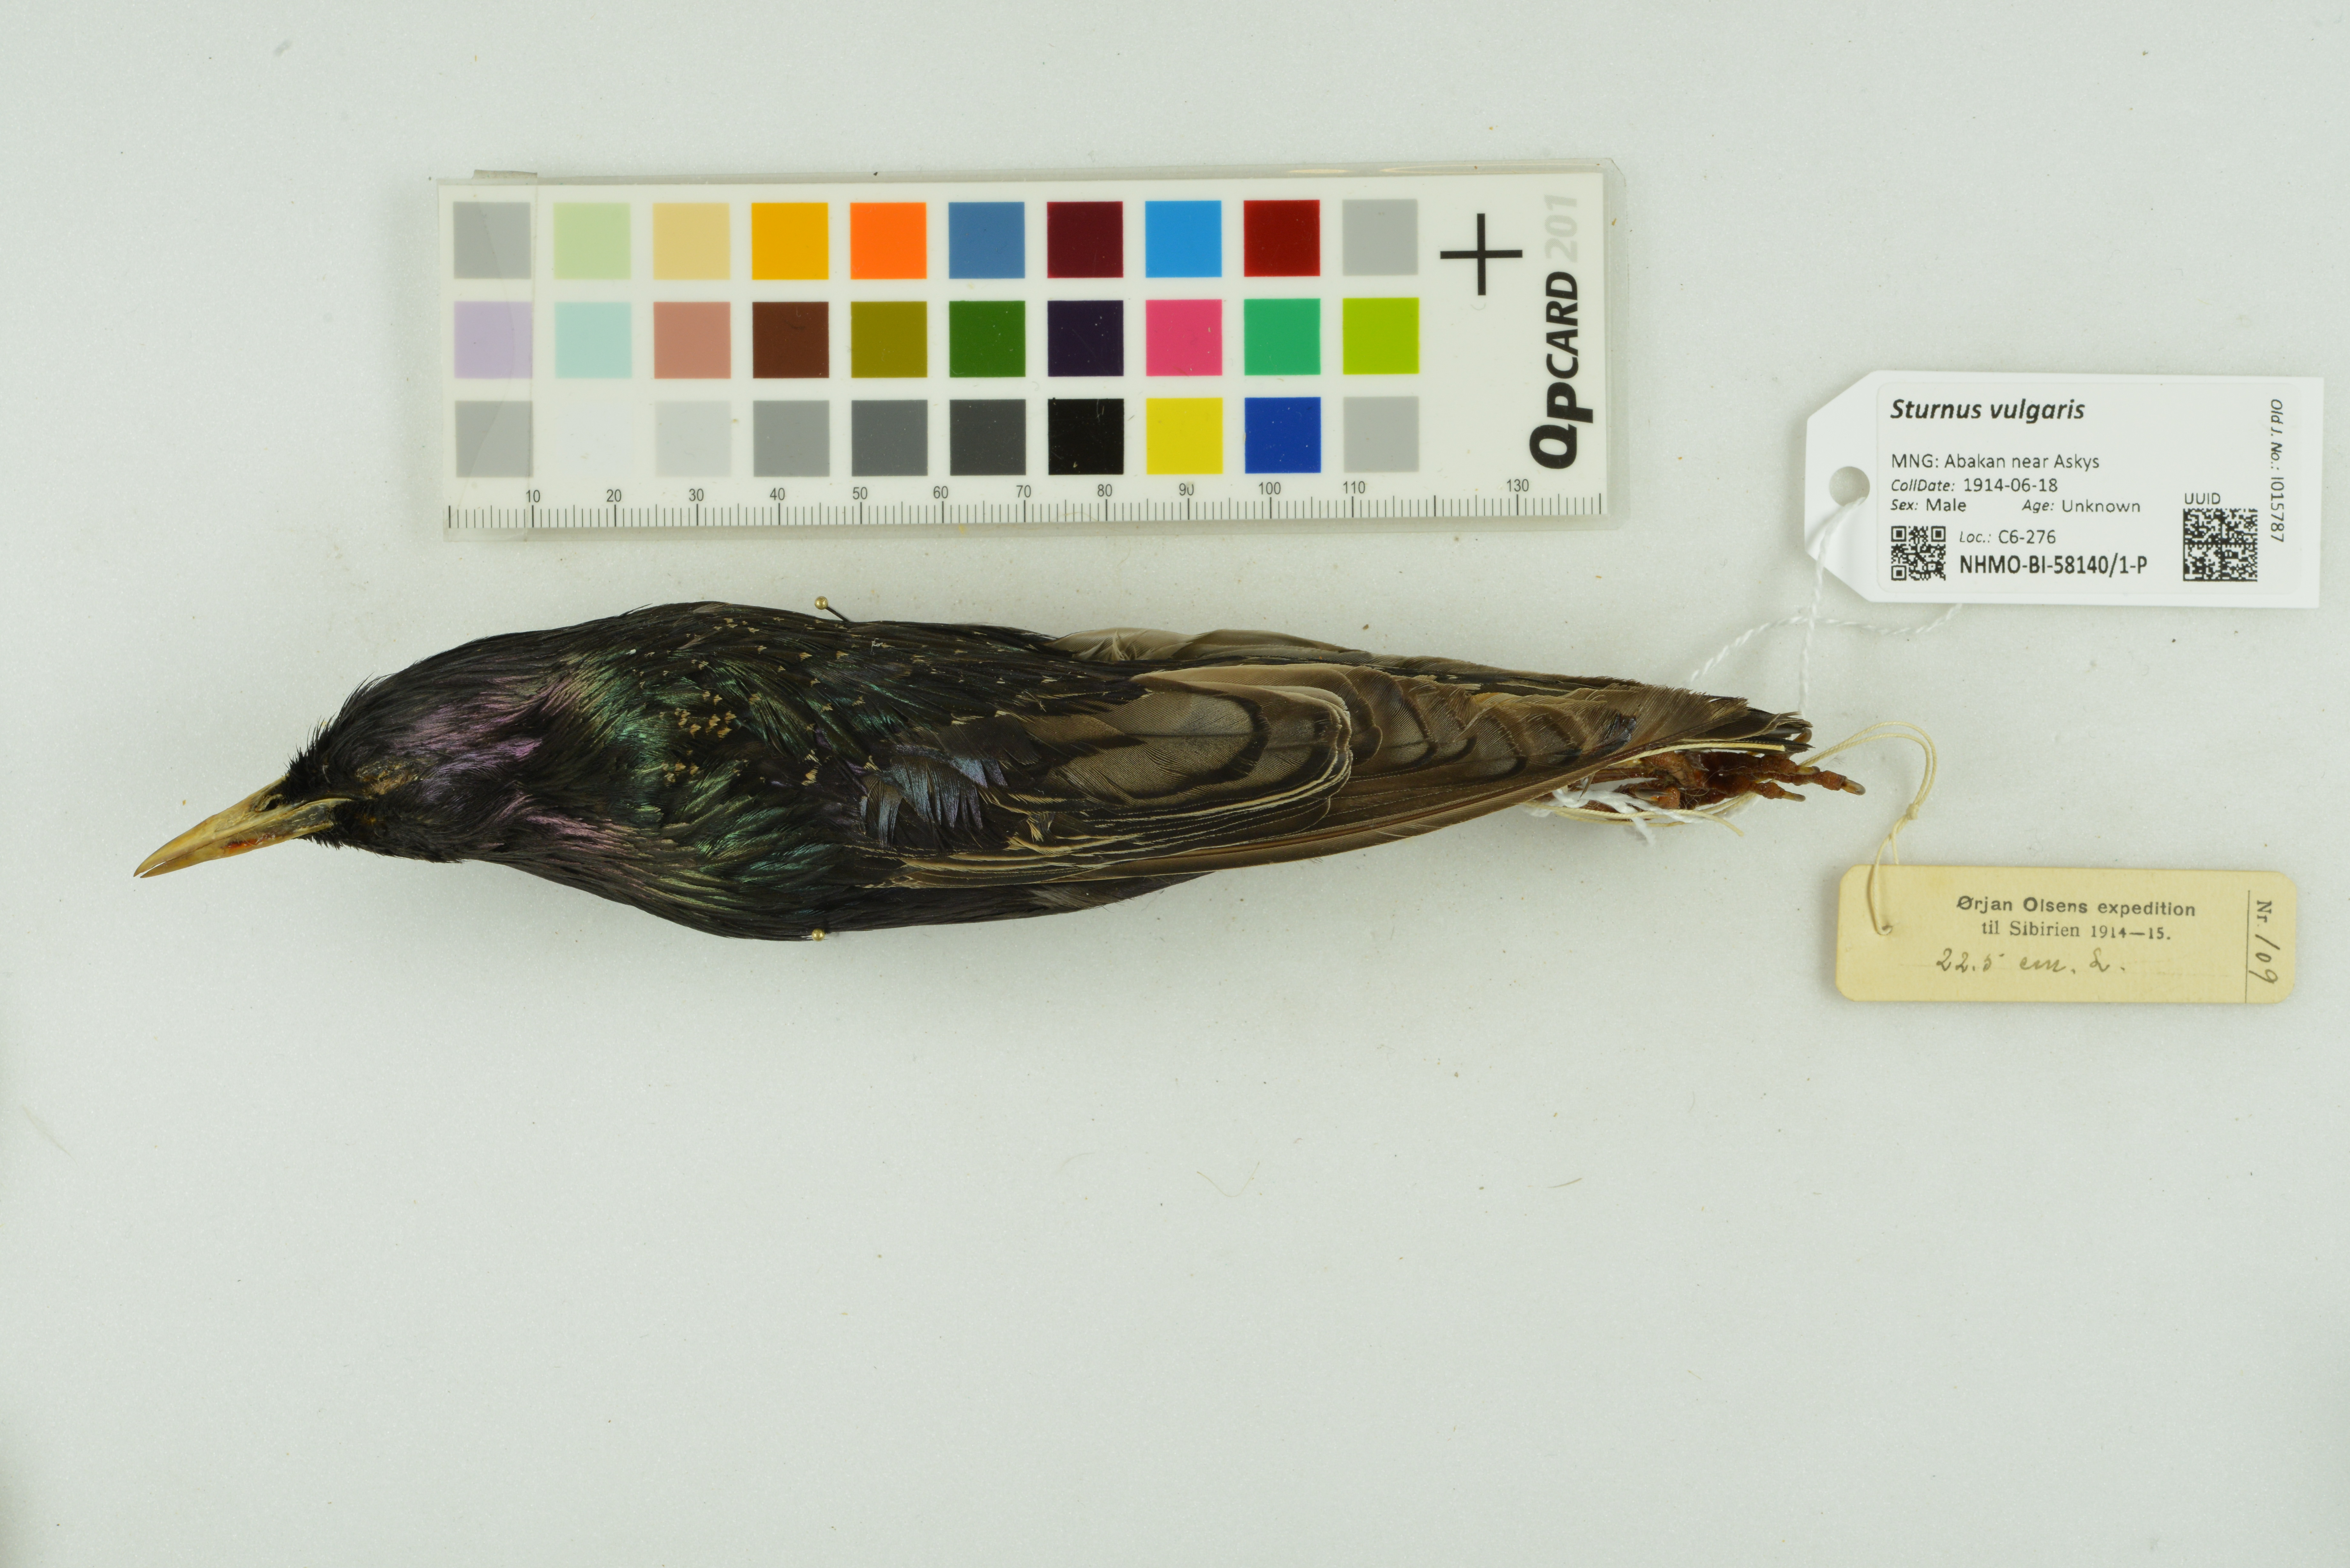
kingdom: Animalia
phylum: Chordata
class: Aves
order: Passeriformes
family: Sturnidae
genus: Sturnus
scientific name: Sturnus vulgaris
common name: Common starling
